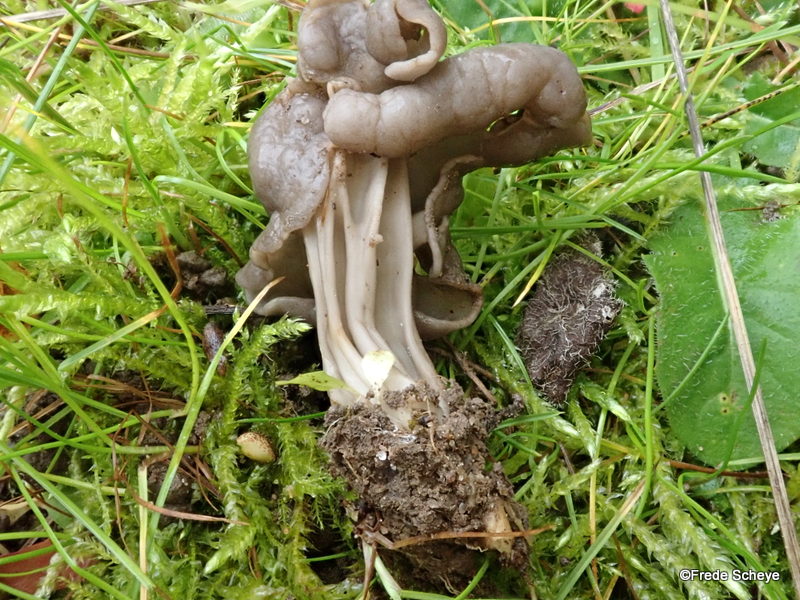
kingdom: Fungi
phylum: Ascomycota
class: Pezizomycetes
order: Pezizales
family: Helvellaceae
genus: Helvella
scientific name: Helvella lacunosa
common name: grubet foldhat
